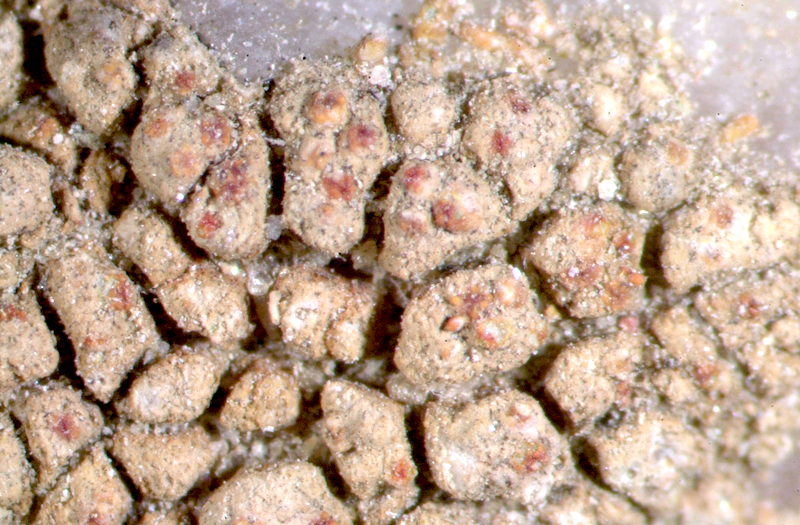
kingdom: Fungi
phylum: Ascomycota
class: Lecanoromycetes
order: Teloschistales
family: Teloschistaceae
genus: Stellarangia
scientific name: Stellarangia testudinea
